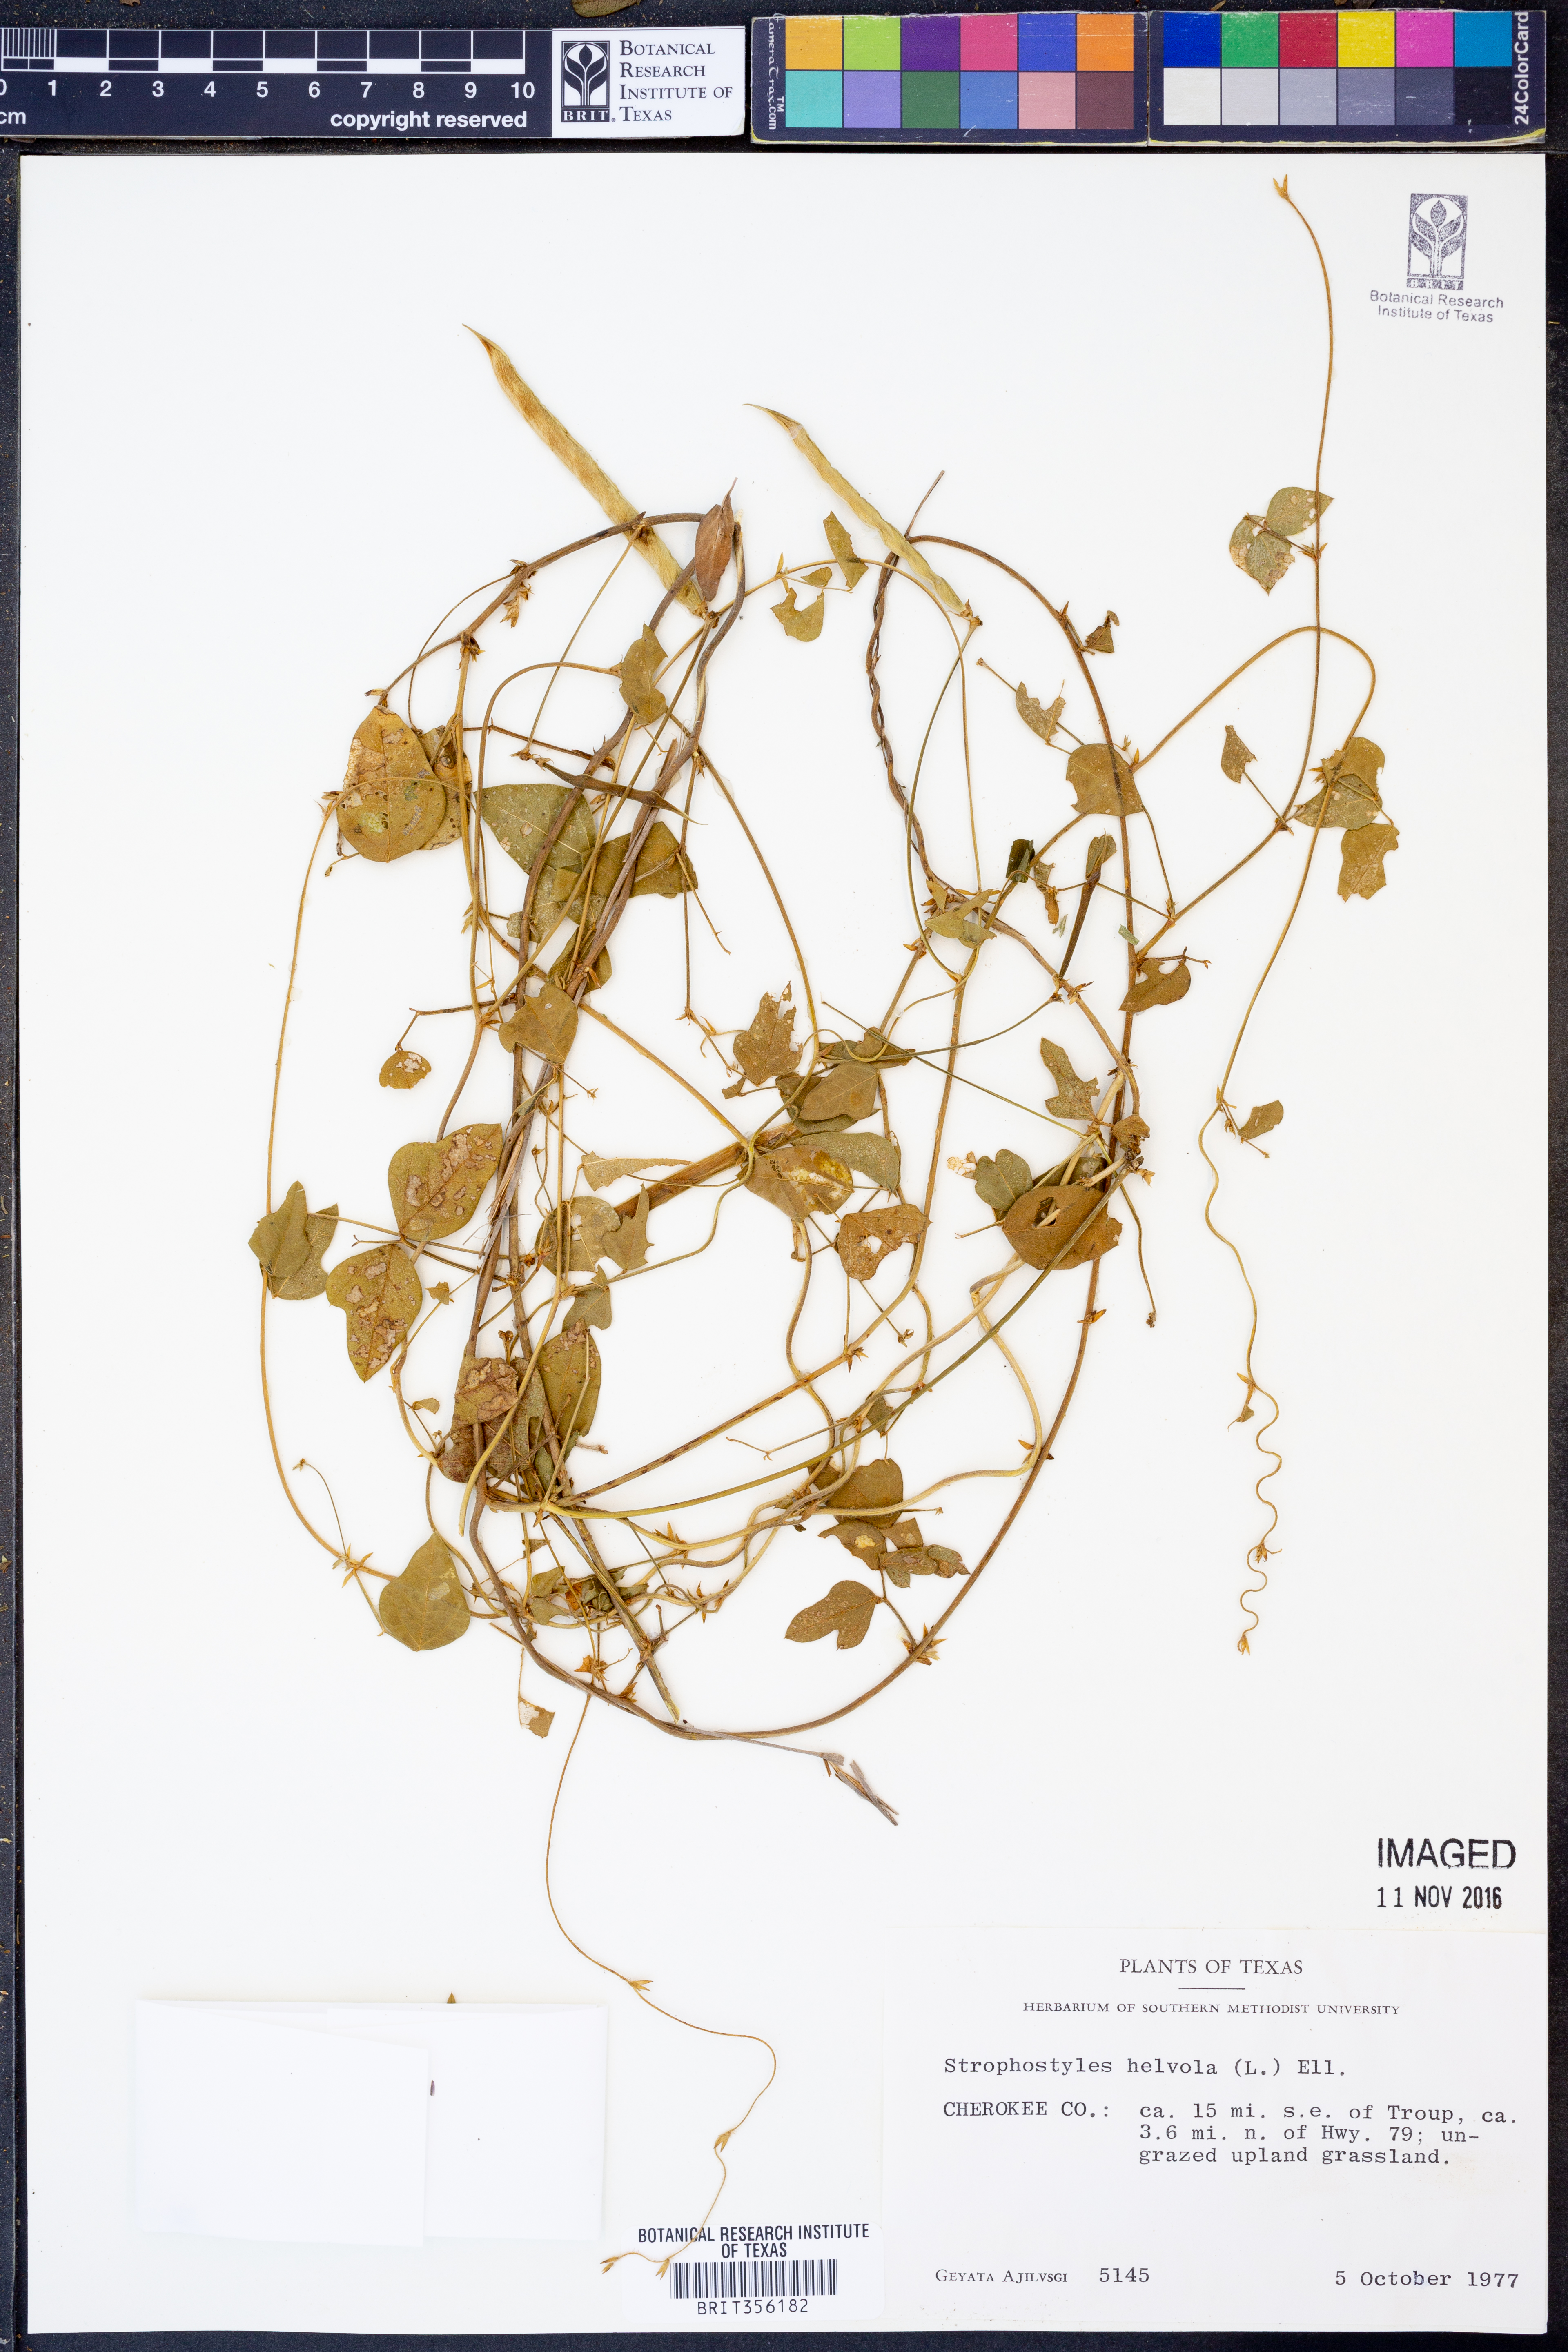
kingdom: Plantae
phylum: Tracheophyta
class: Magnoliopsida
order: Fabales
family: Fabaceae
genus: Strophostyles
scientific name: Strophostyles helvola
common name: Trailing wild bean
